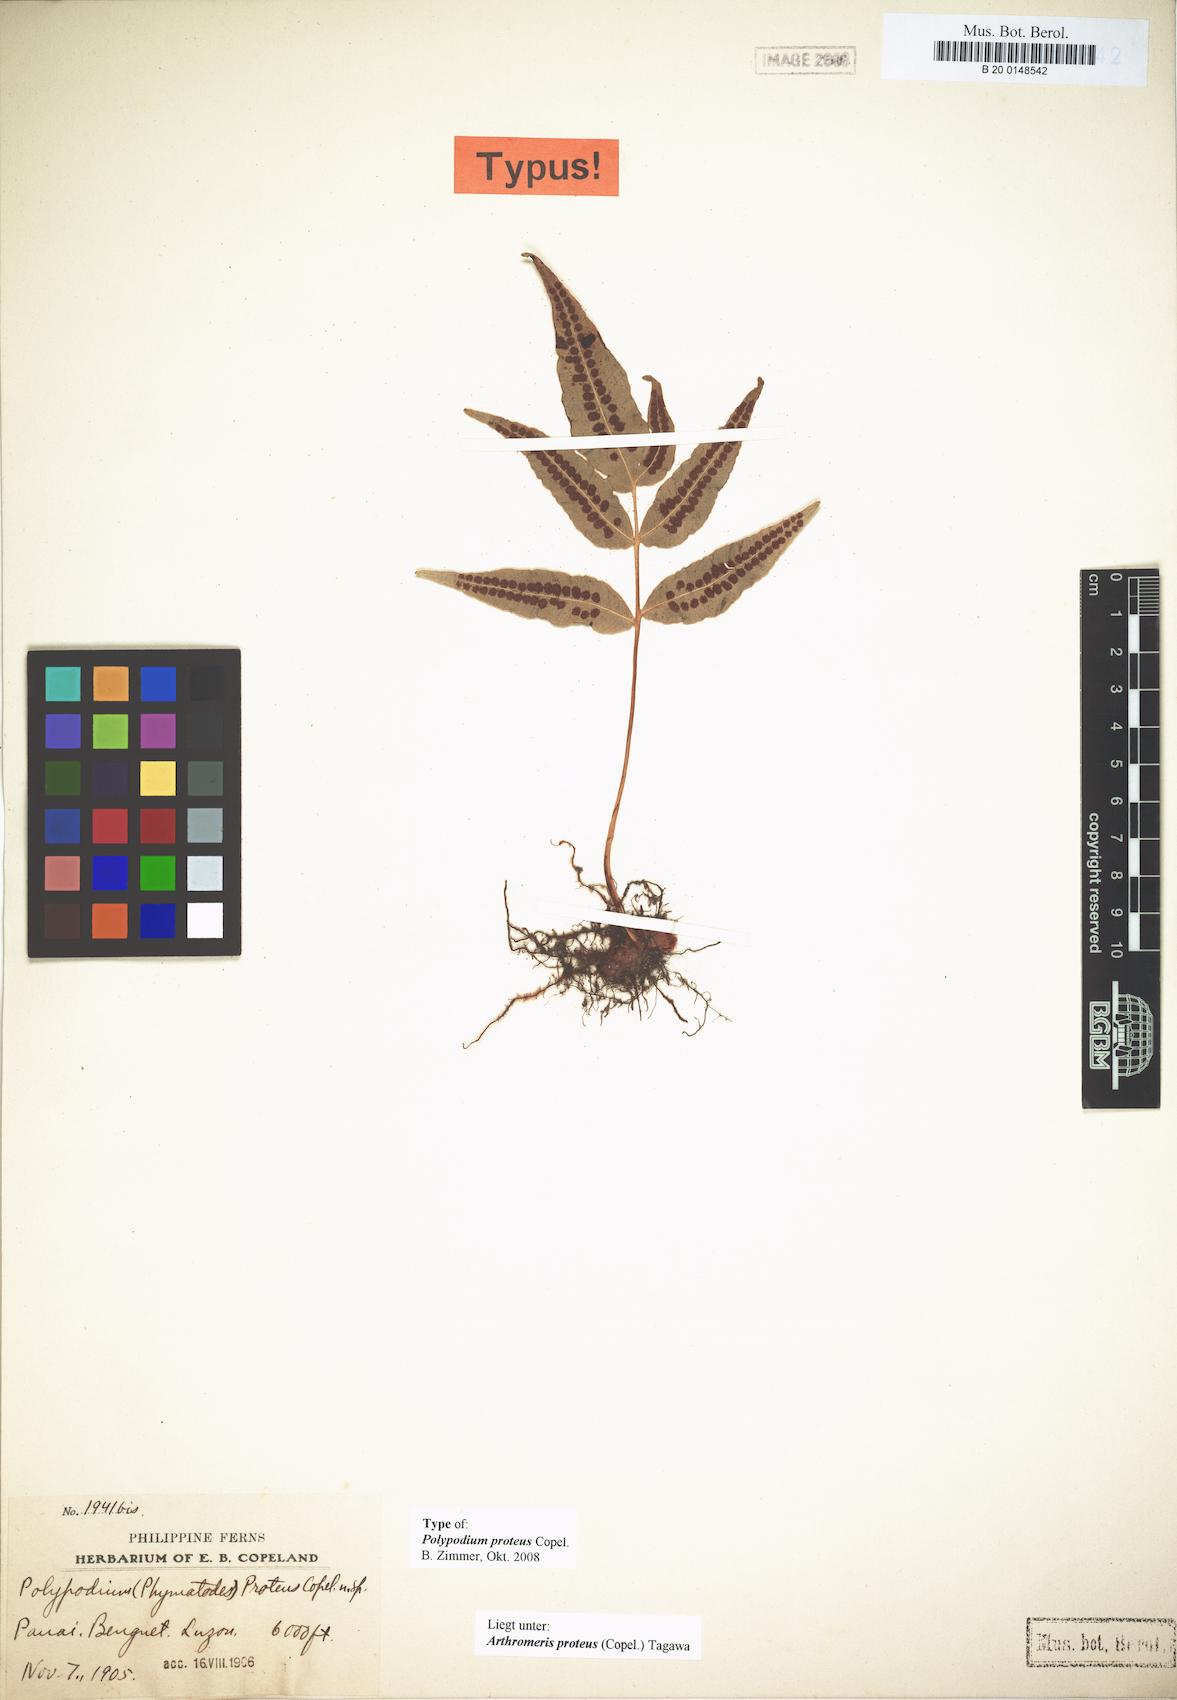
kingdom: Plantae
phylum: Tracheophyta
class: Polypodiopsida
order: Polypodiales
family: Polypodiaceae
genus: Selliguea
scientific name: Selliguea moulmeinensis
